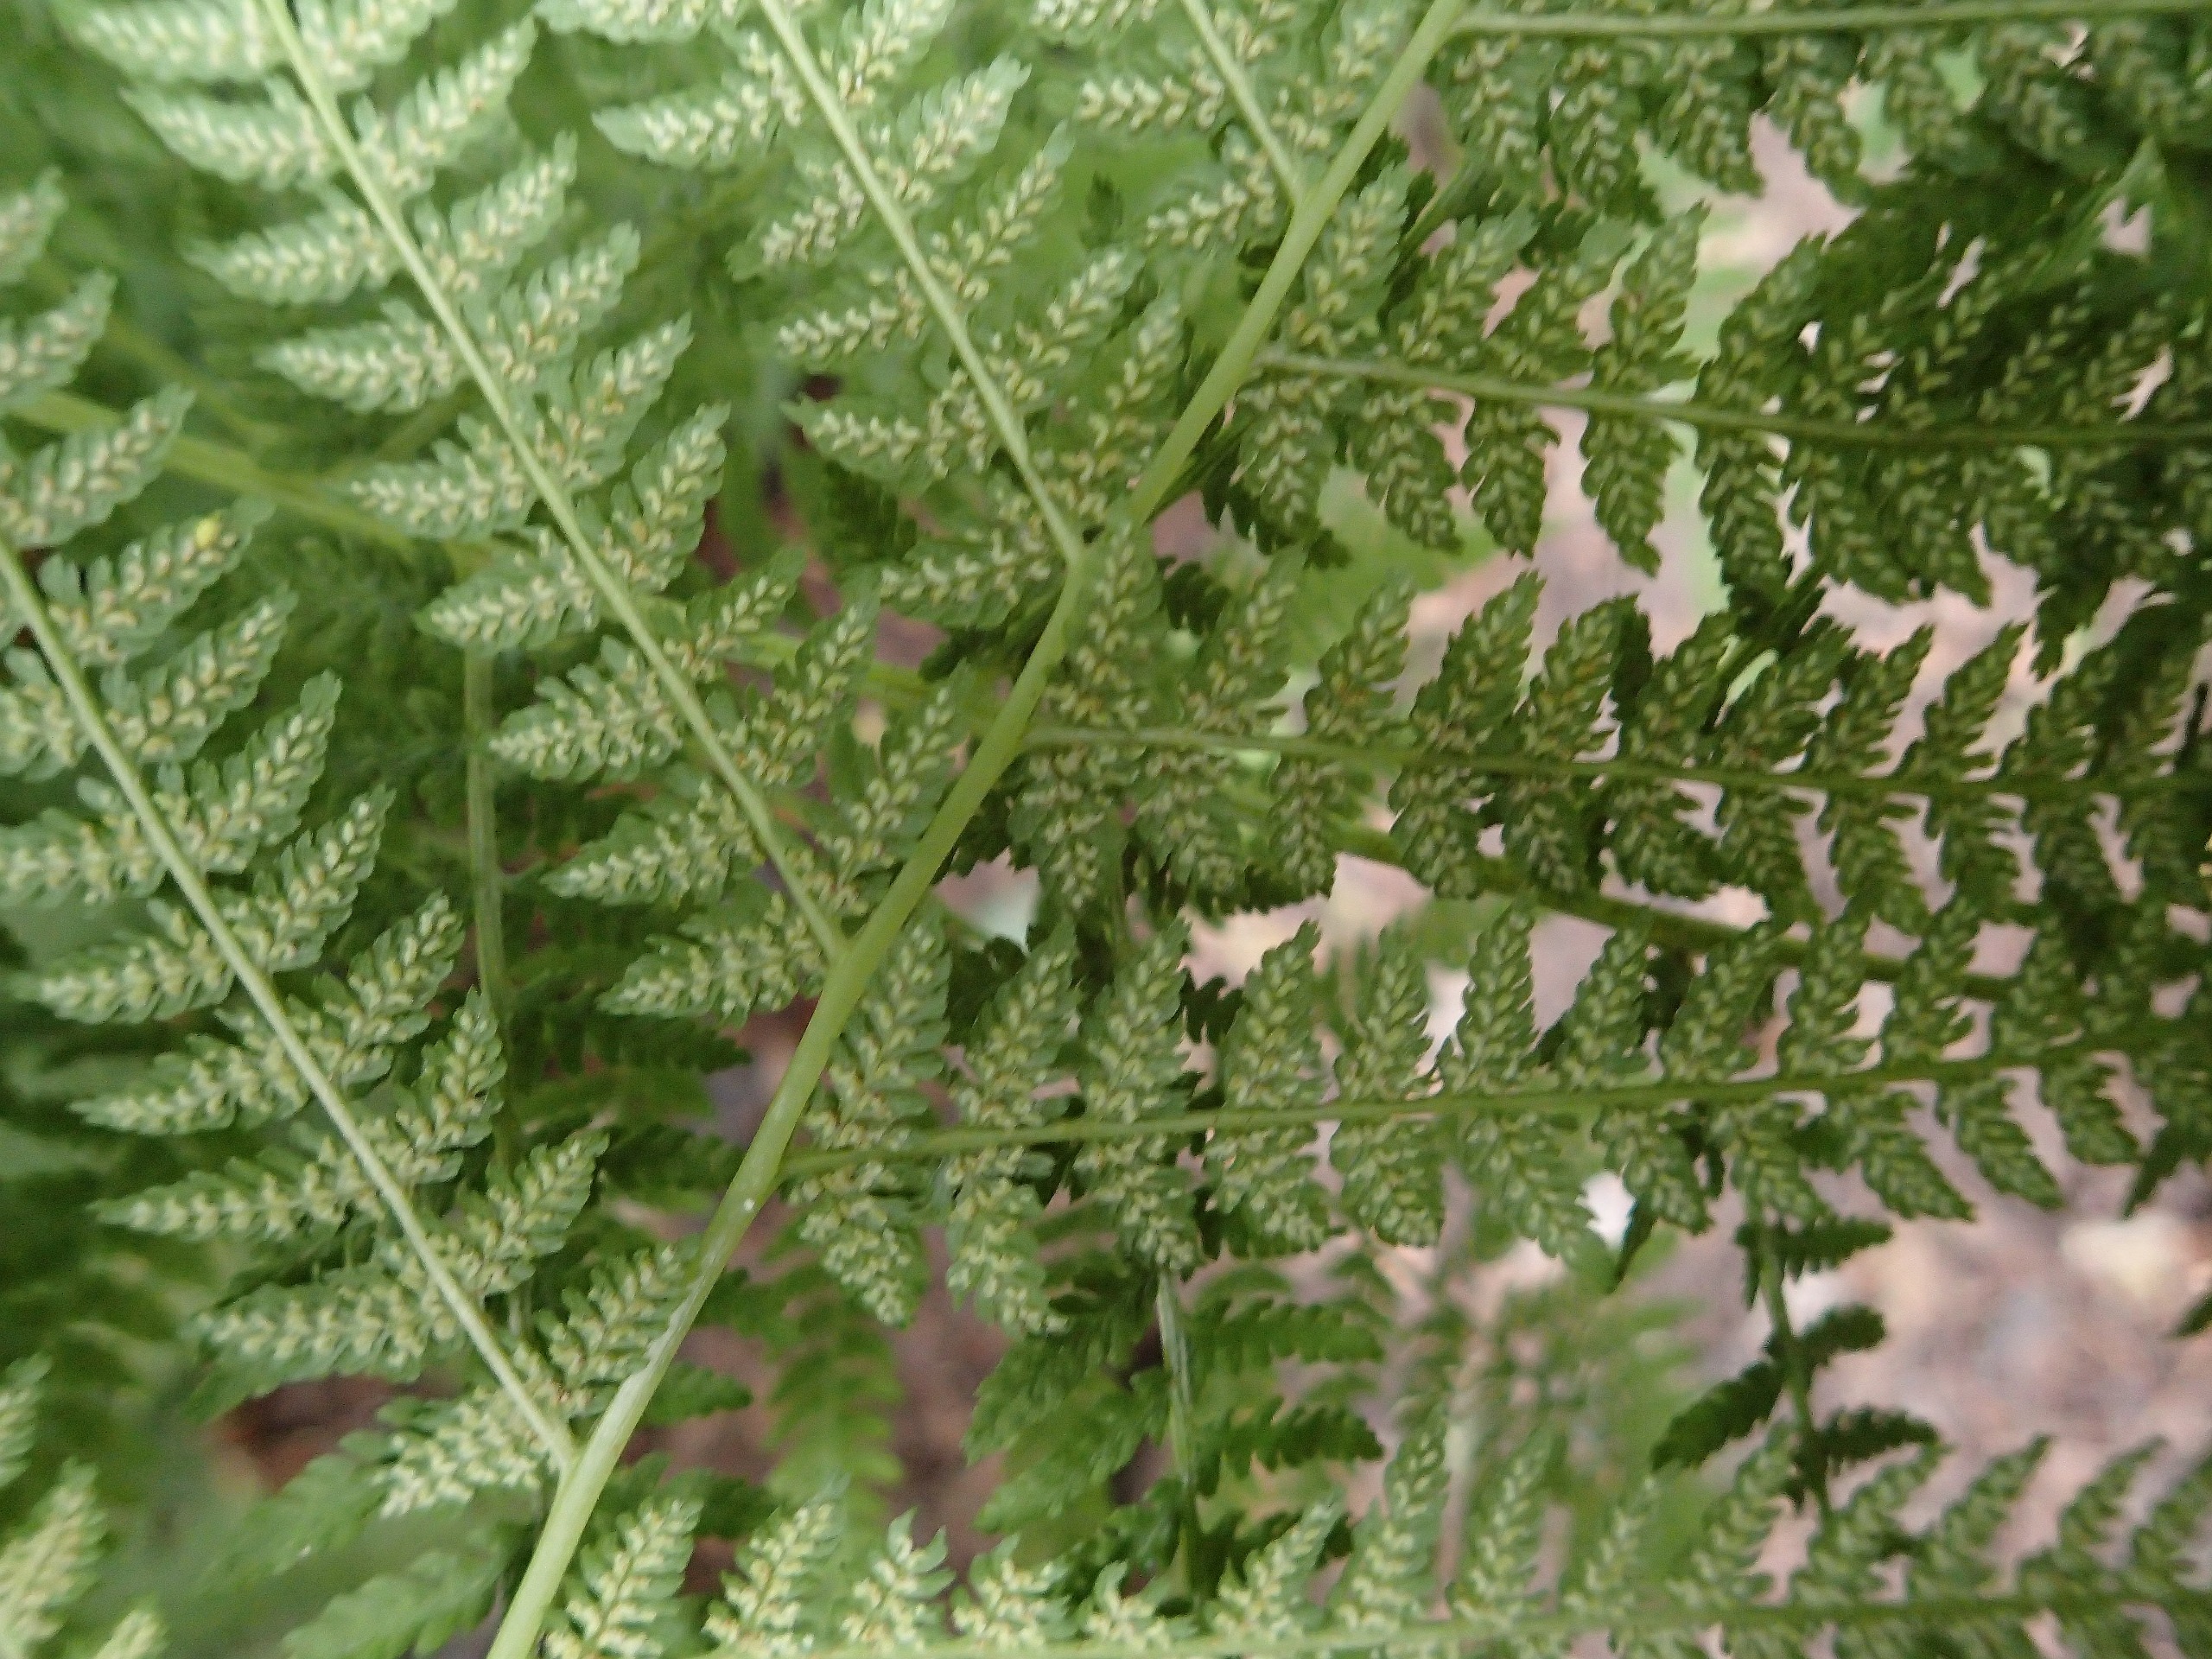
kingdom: Plantae
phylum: Tracheophyta
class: Polypodiopsida
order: Polypodiales
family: Athyriaceae
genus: Athyrium
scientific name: Athyrium filix-femina
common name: Fjerbregne
